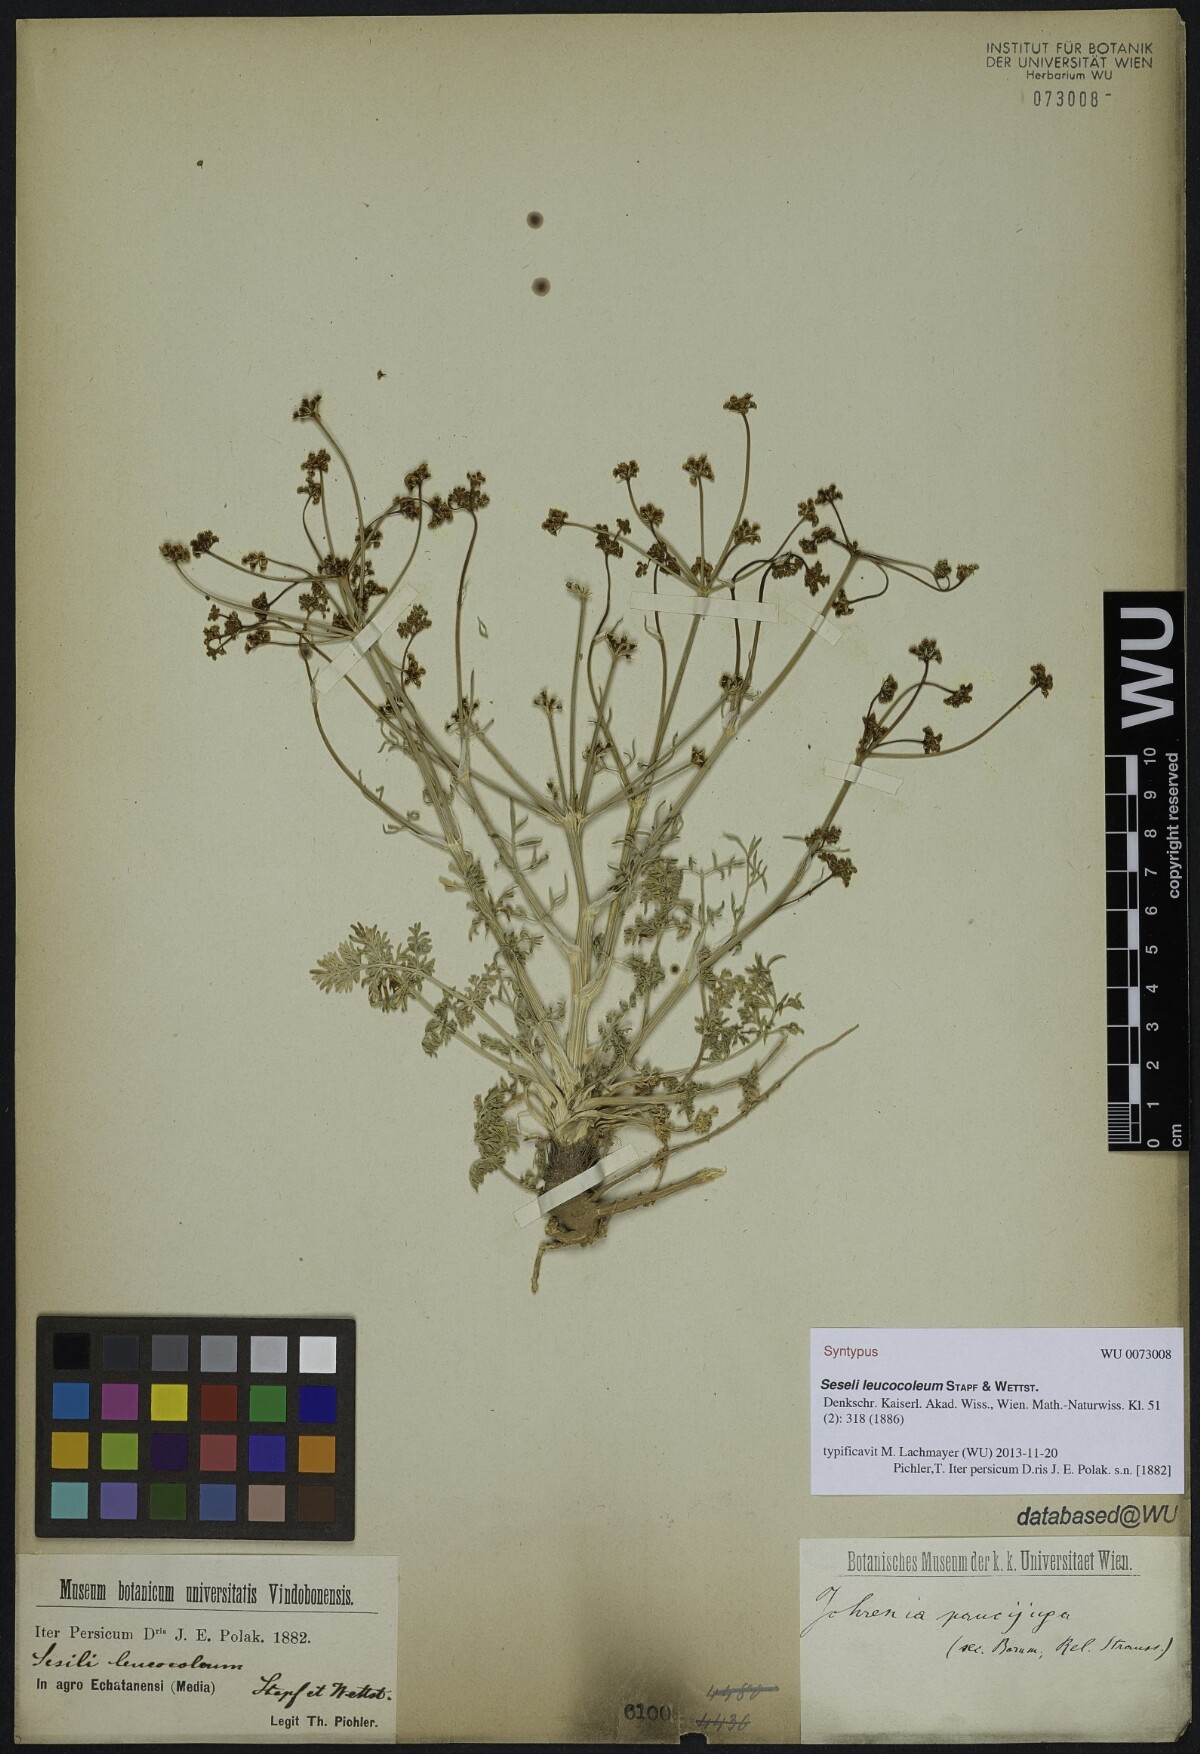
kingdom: Plantae
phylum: Tracheophyta
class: Magnoliopsida
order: Apiales
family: Apiaceae
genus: Dichoropetalum
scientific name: Dichoropetalum paucijugum
